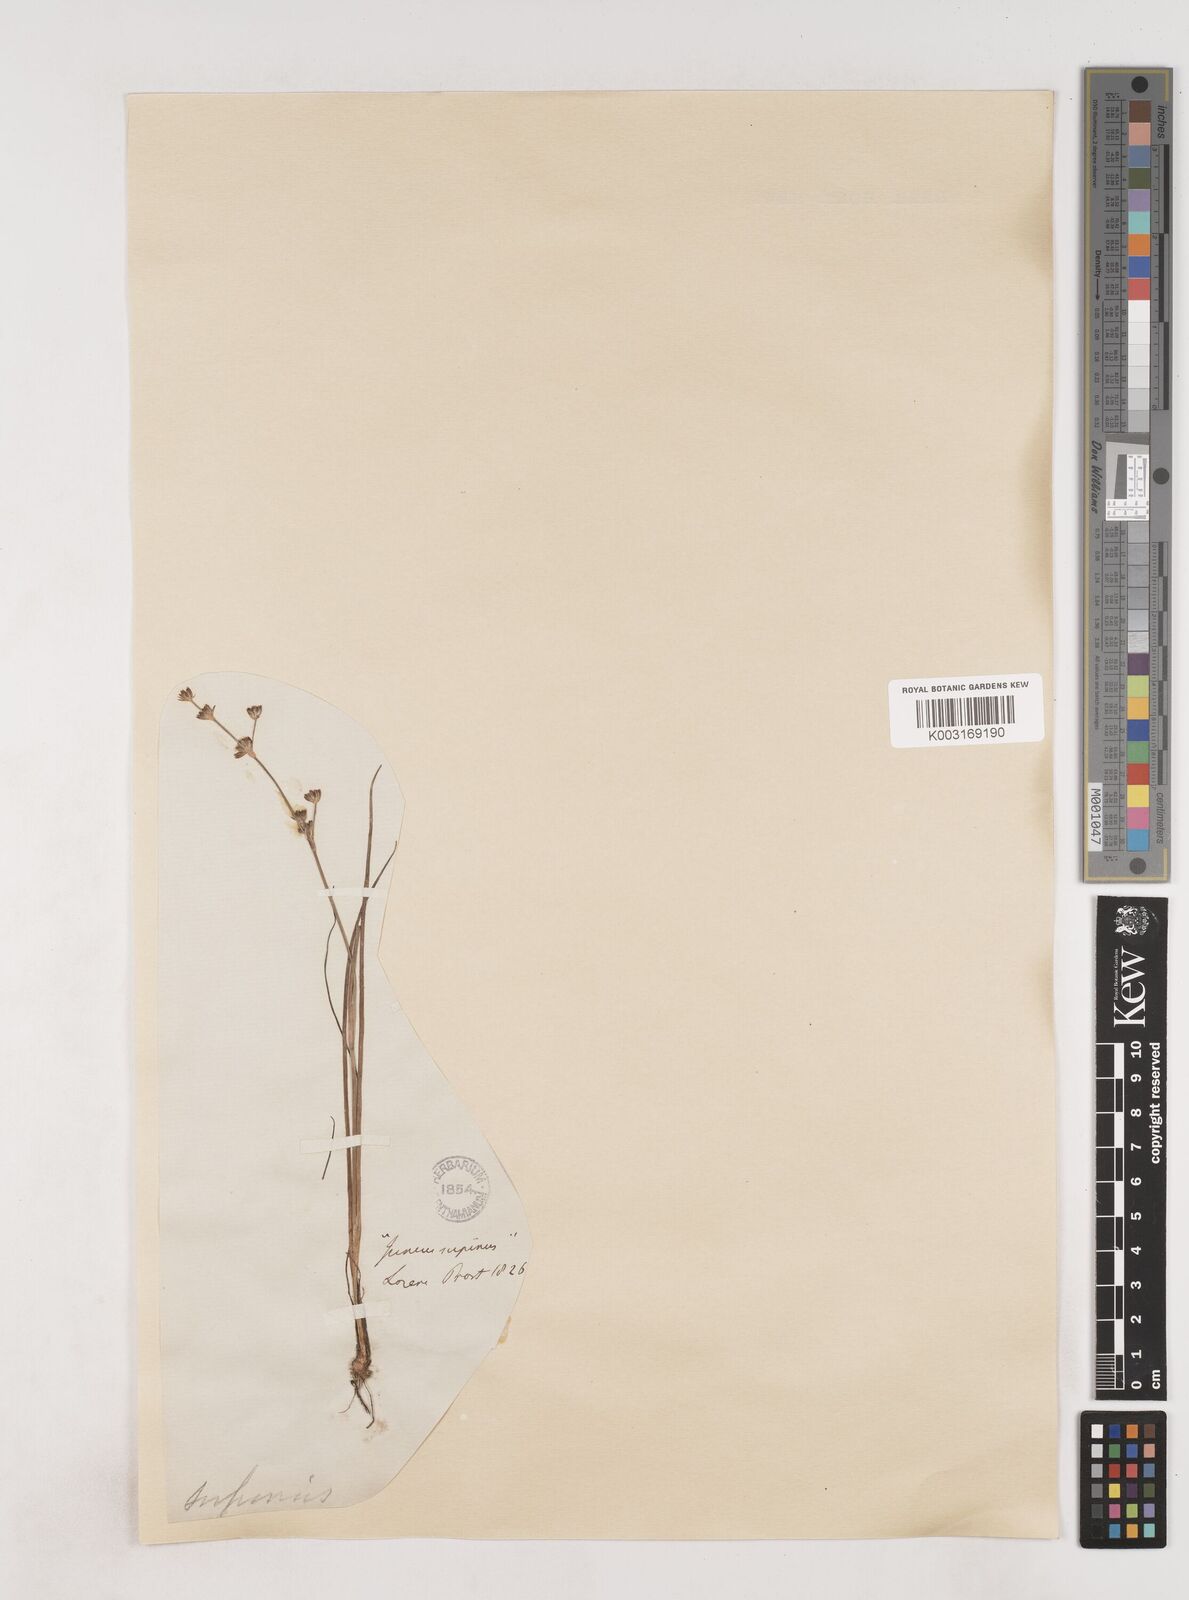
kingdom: Plantae
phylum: Tracheophyta
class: Liliopsida
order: Poales
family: Juncaceae
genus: Juncus
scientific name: Juncus bulbosus
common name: Bulbous rush
